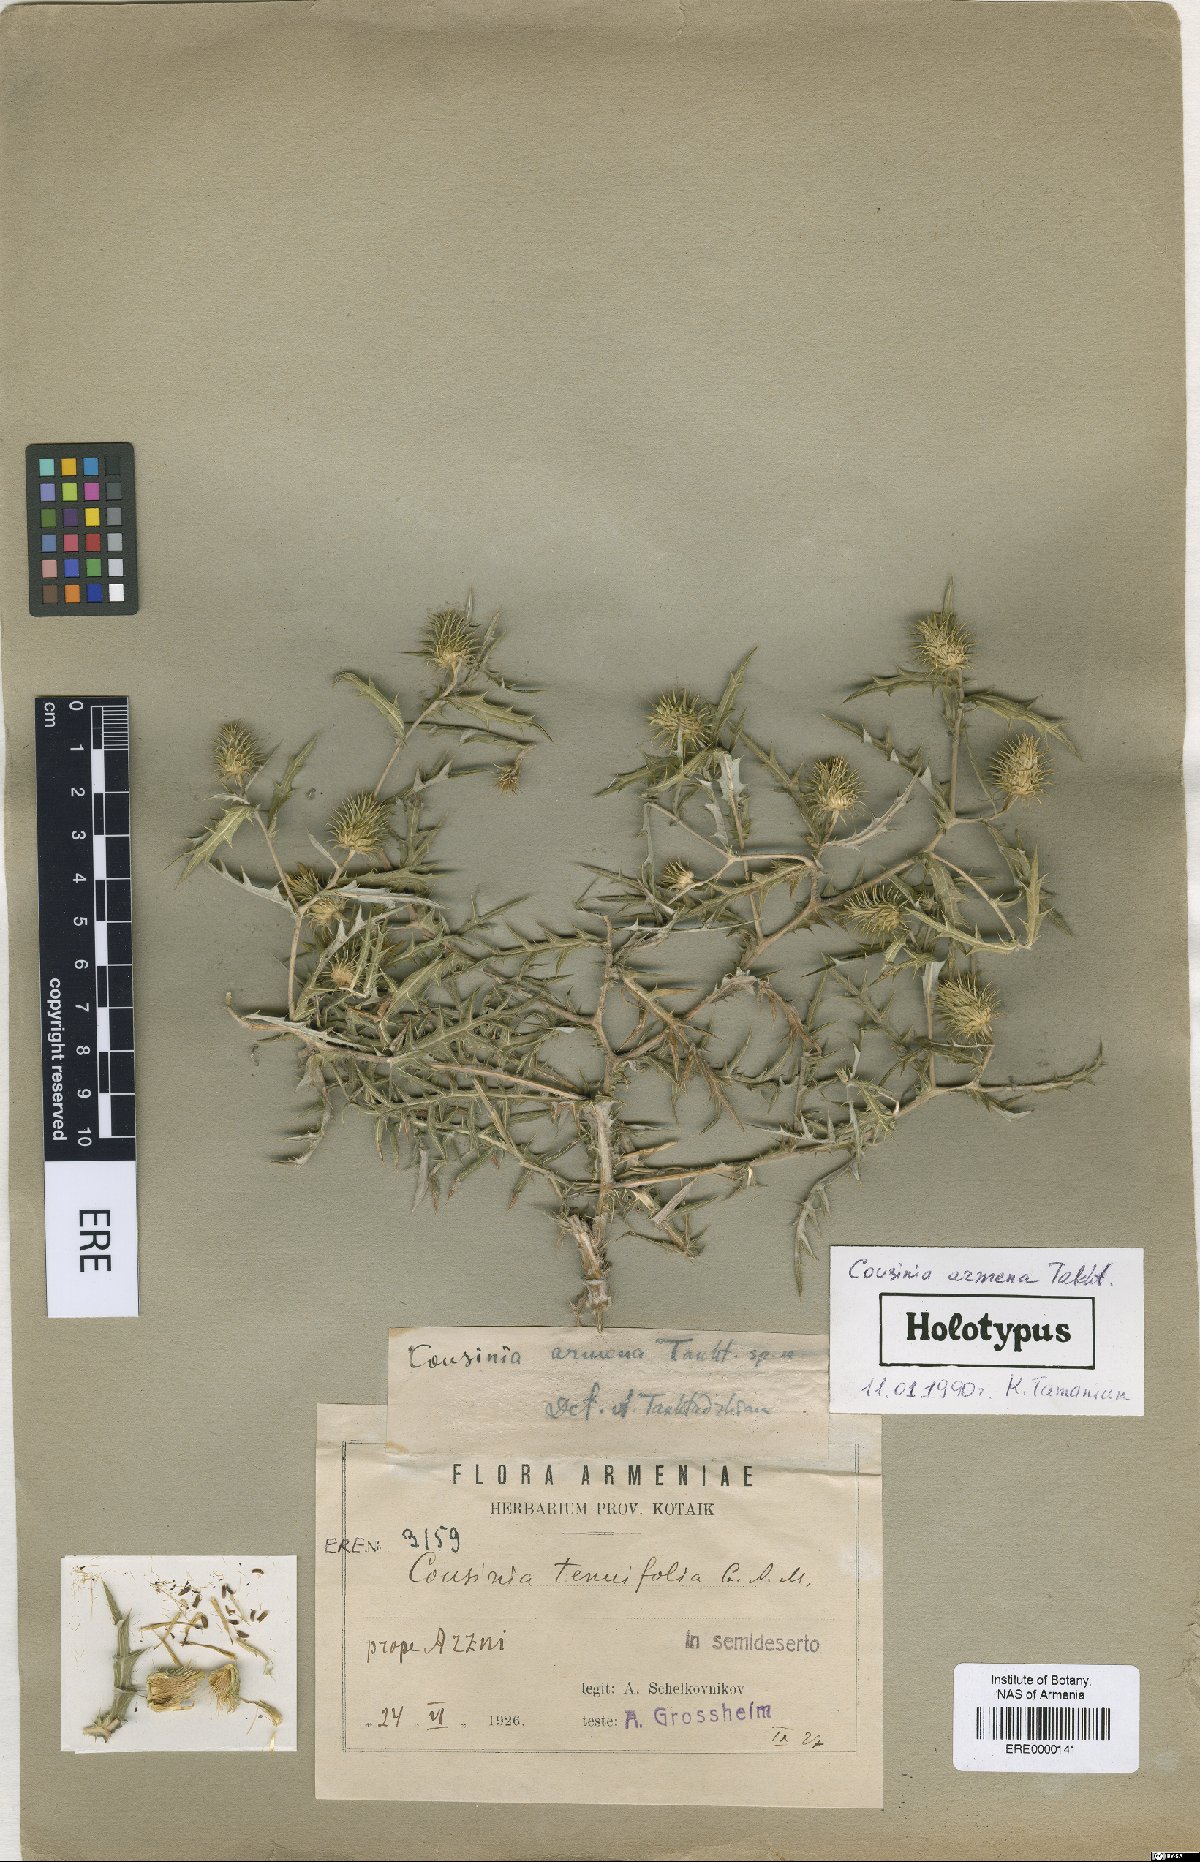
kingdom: Plantae
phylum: Tracheophyta
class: Magnoliopsida
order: Asterales
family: Asteraceae
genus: Cousinia
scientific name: Cousinia armena
